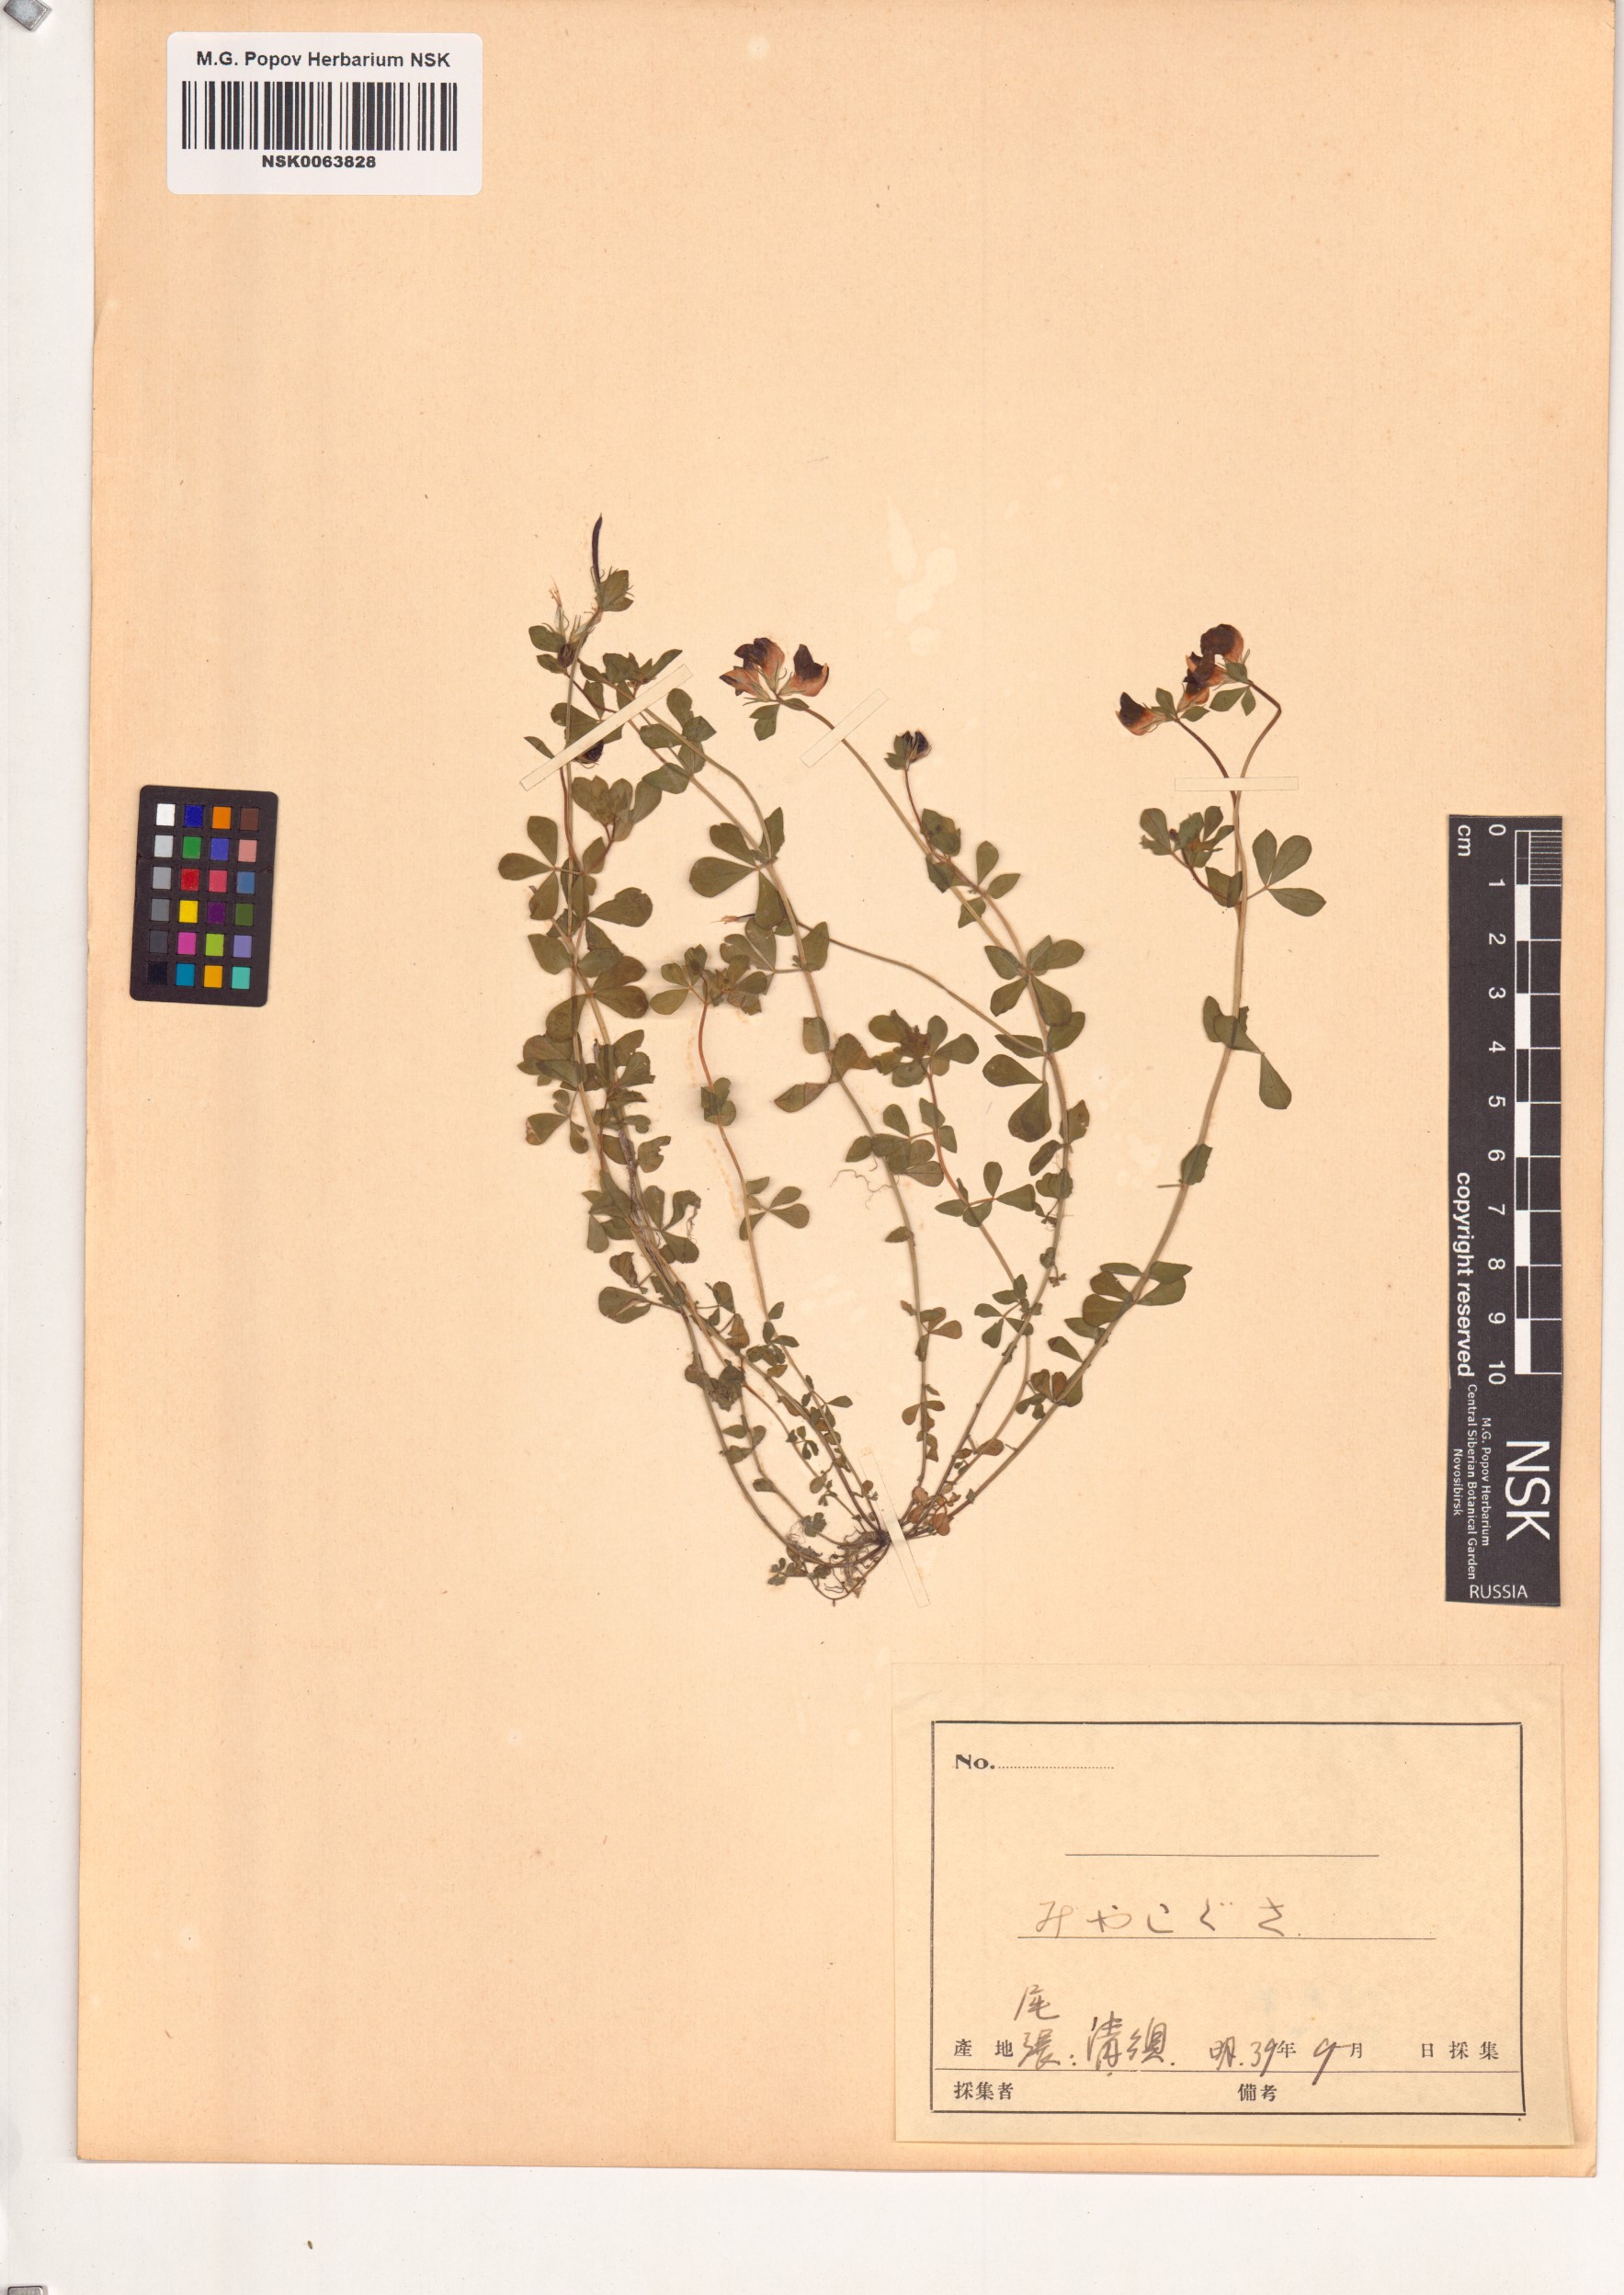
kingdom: Plantae
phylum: Tracheophyta
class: Magnoliopsida
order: Fabales
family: Fabaceae
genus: Lotus
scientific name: Lotus japonicus
